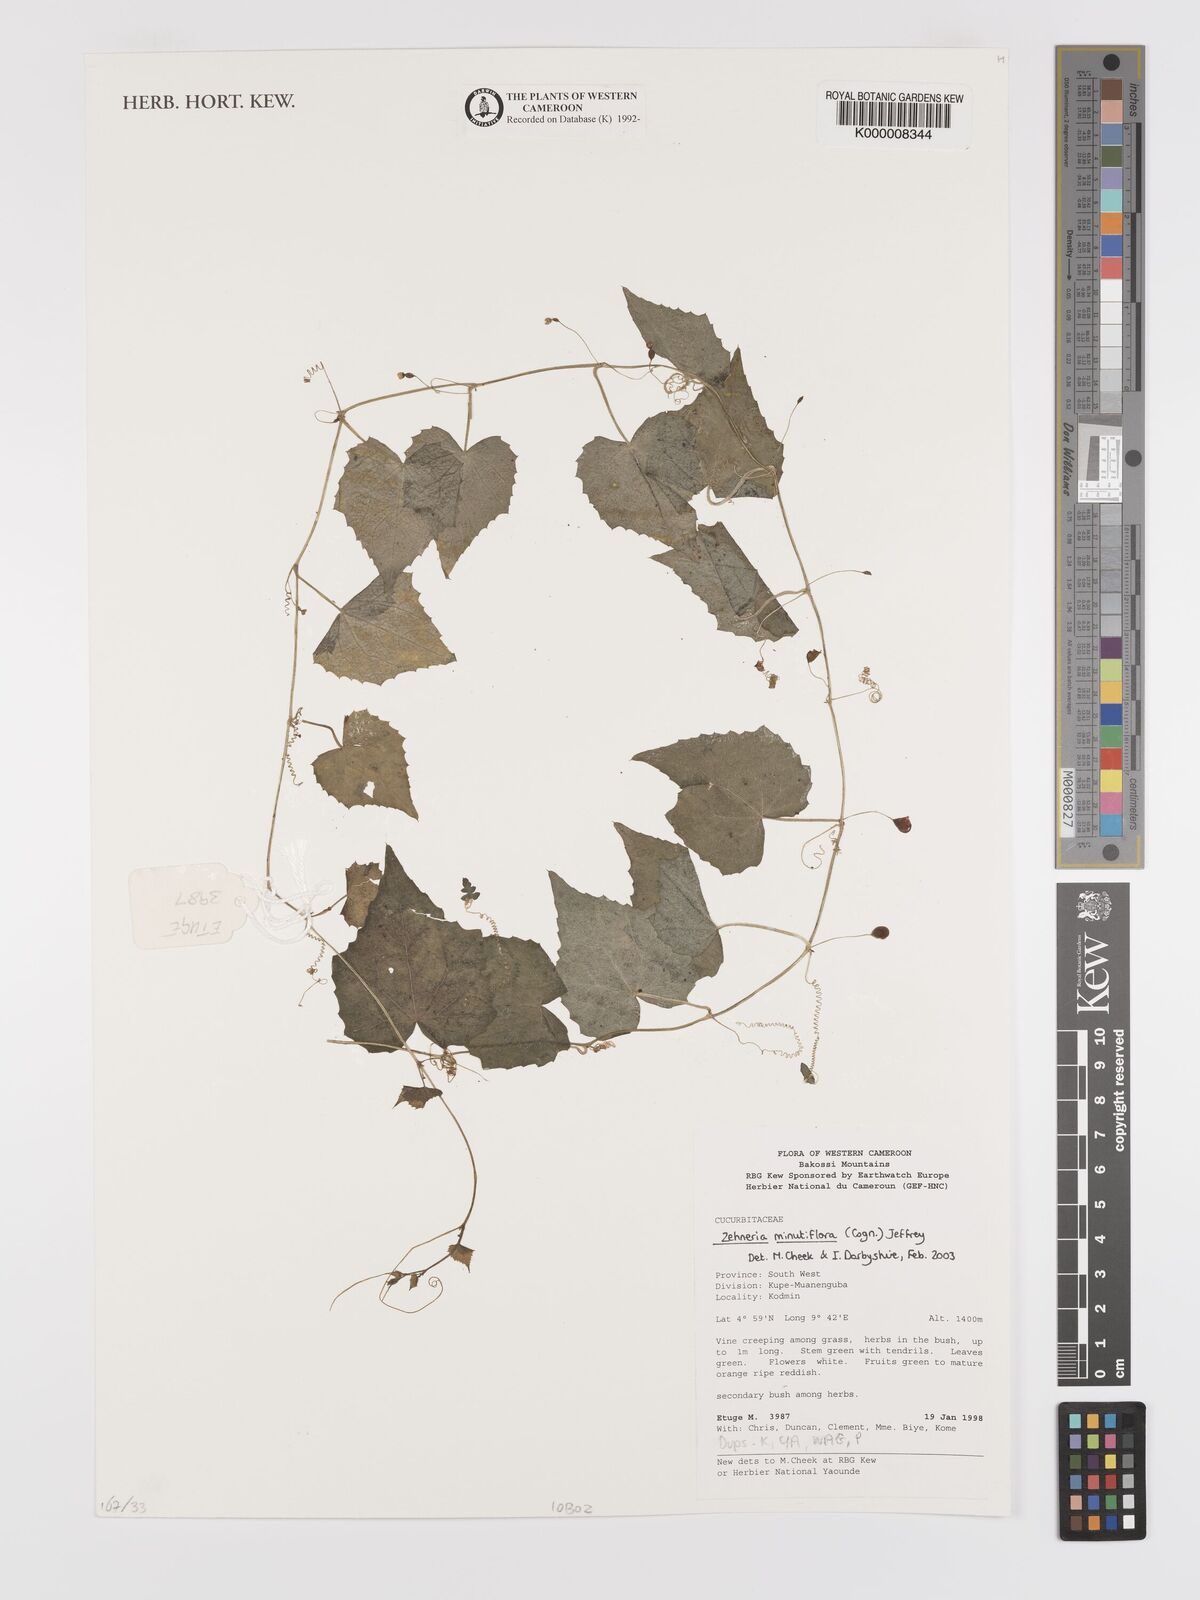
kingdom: Plantae
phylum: Tracheophyta
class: Magnoliopsida
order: Cucurbitales
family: Cucurbitaceae
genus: Zehneria
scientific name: Zehneria minutiflora
